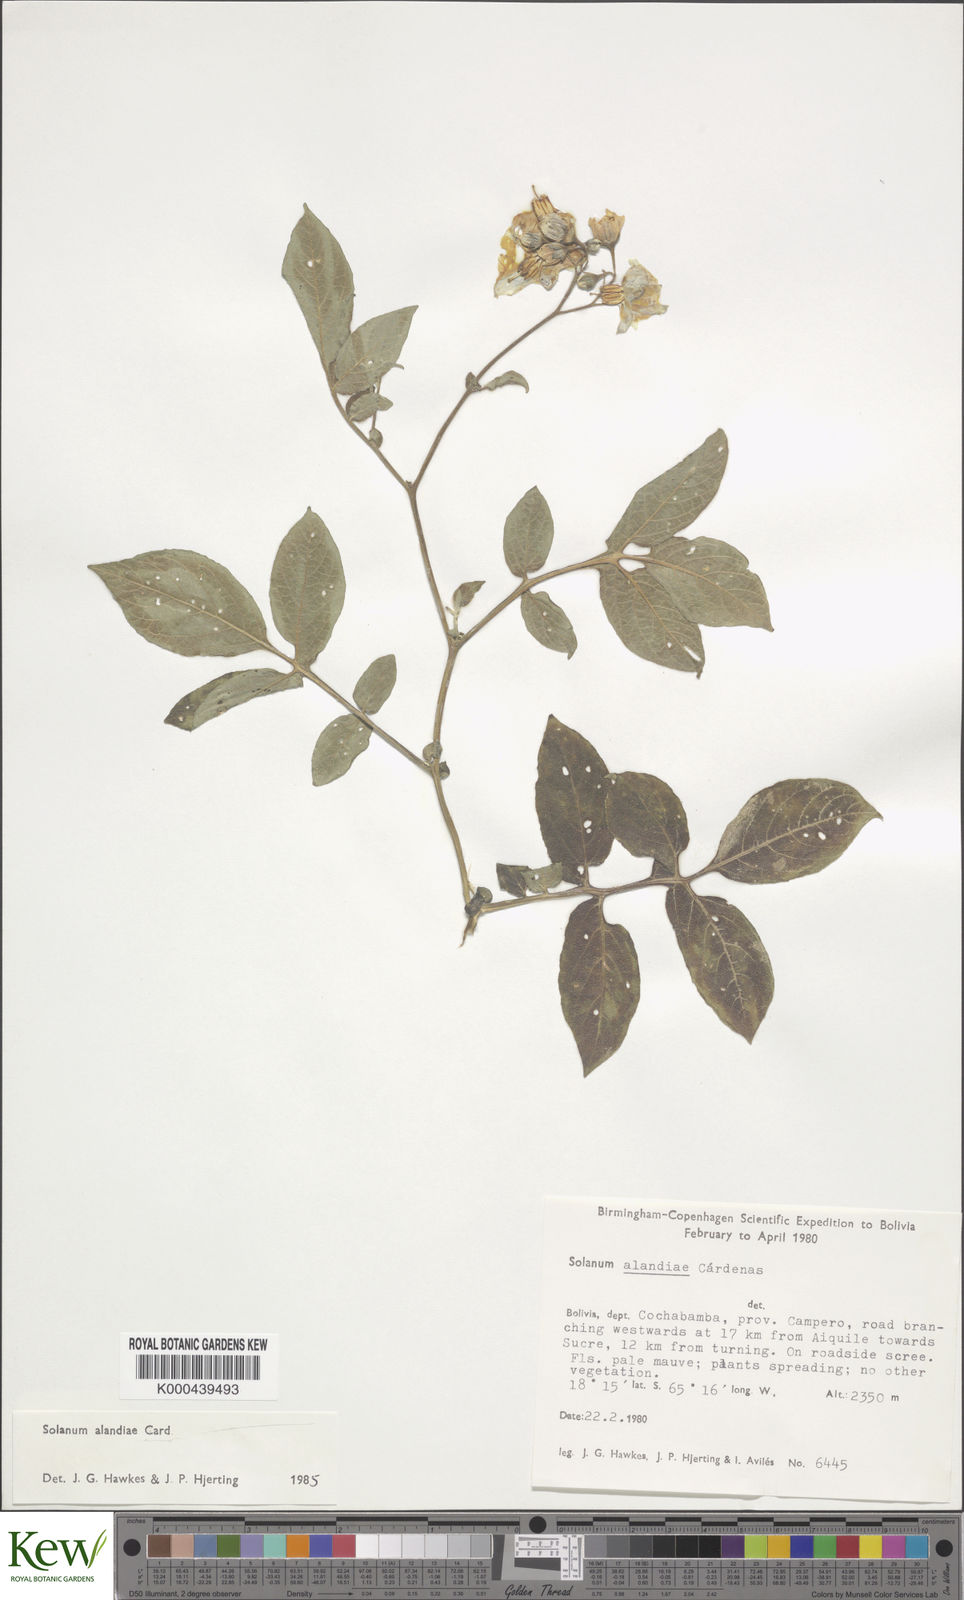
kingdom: Plantae
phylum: Tracheophyta
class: Magnoliopsida
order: Solanales
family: Solanaceae
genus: Solanum
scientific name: Solanum brevicaule
